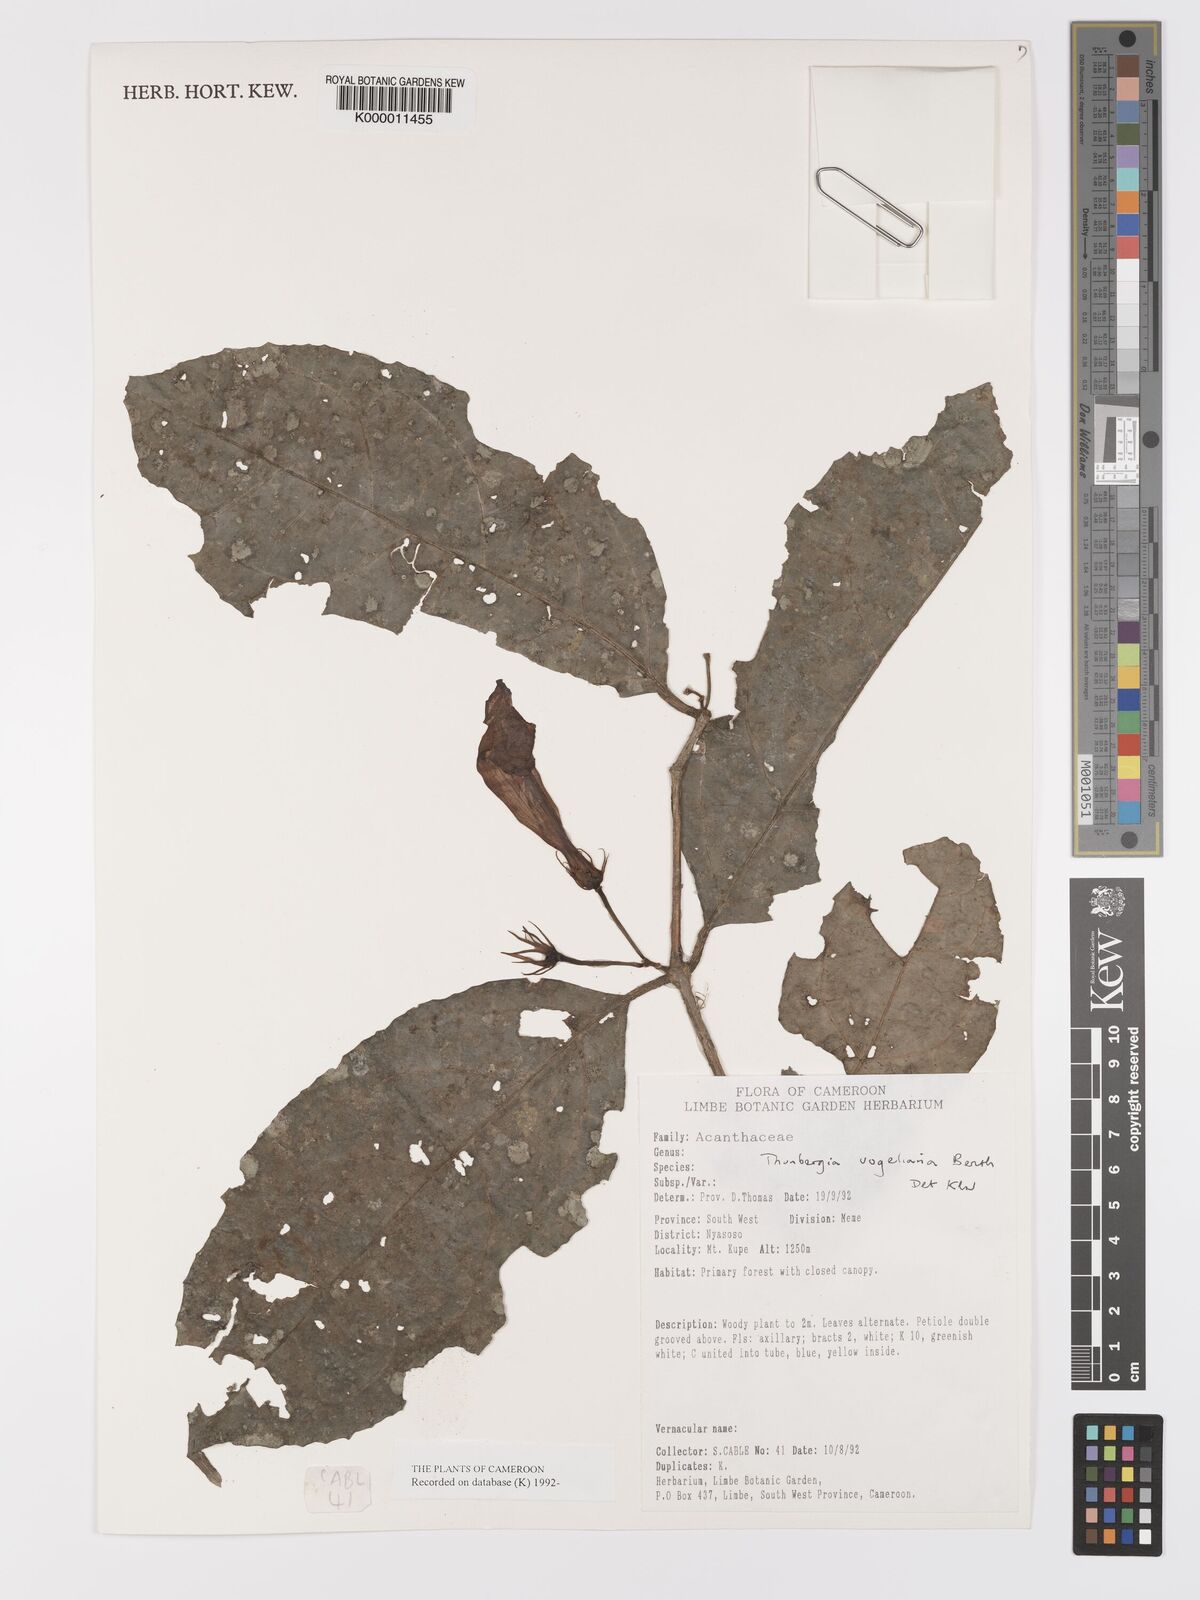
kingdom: Plantae
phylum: Tracheophyta
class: Magnoliopsida
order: Lamiales
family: Acanthaceae
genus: Thunbergia
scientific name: Thunbergia vogeliana
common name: Acanthaceae
